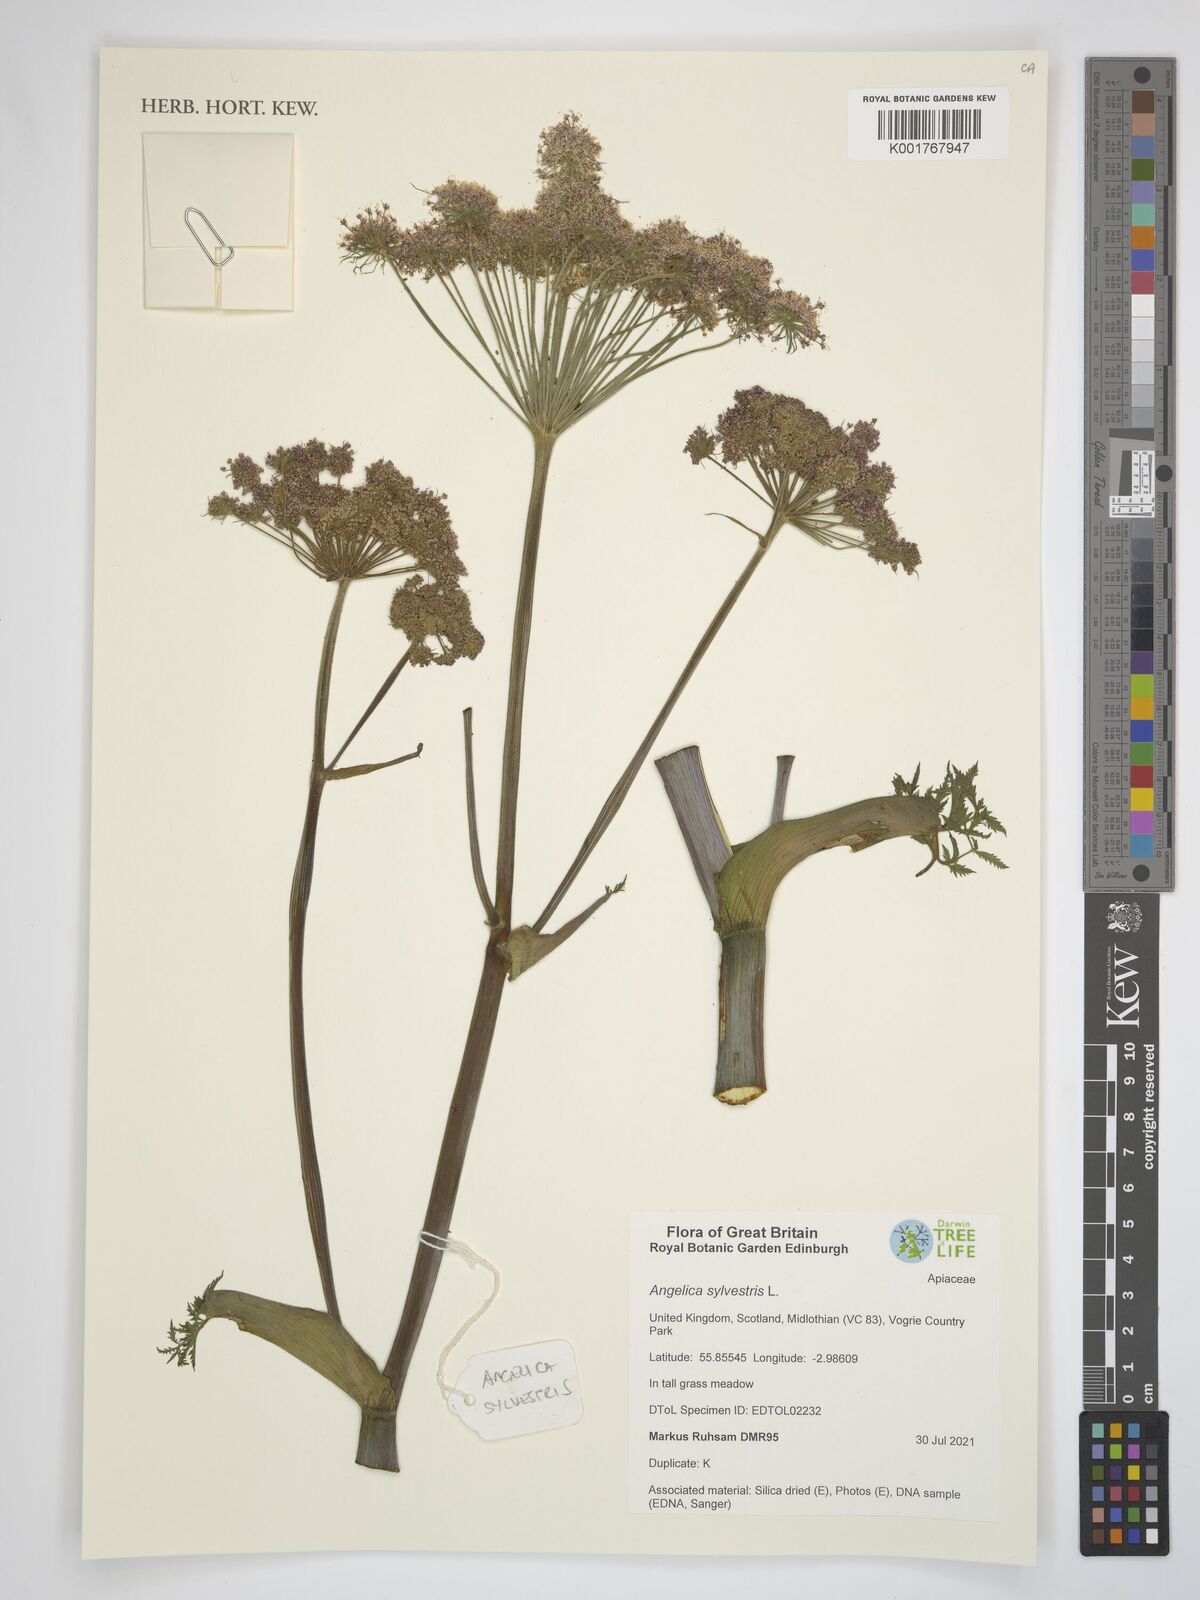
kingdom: Plantae
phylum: Tracheophyta
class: Magnoliopsida
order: Apiales
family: Apiaceae
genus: Angelica
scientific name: Angelica sylvestris
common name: Wild angelica
